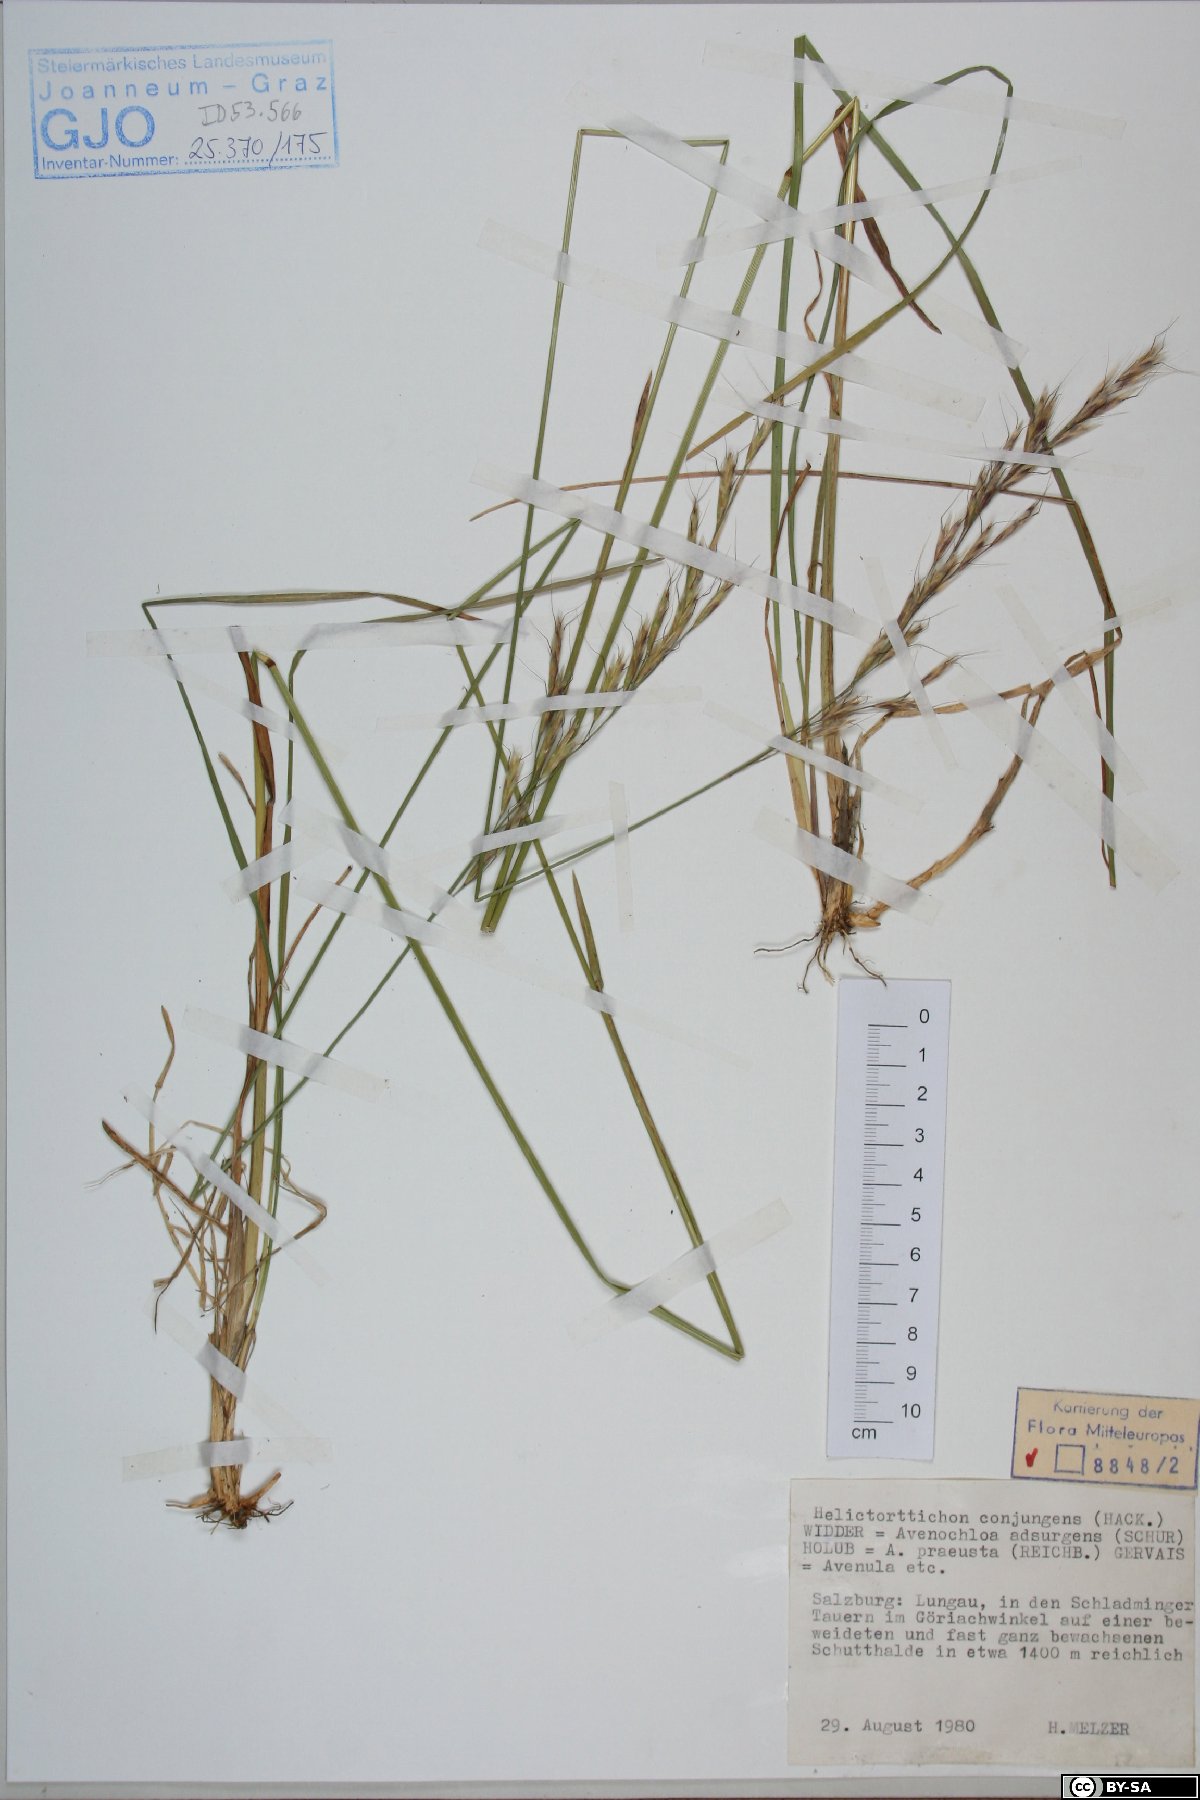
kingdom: Plantae
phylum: Tracheophyta
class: Liliopsida
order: Poales
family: Poaceae
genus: Helictochloa
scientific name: Helictochloa praeusta
